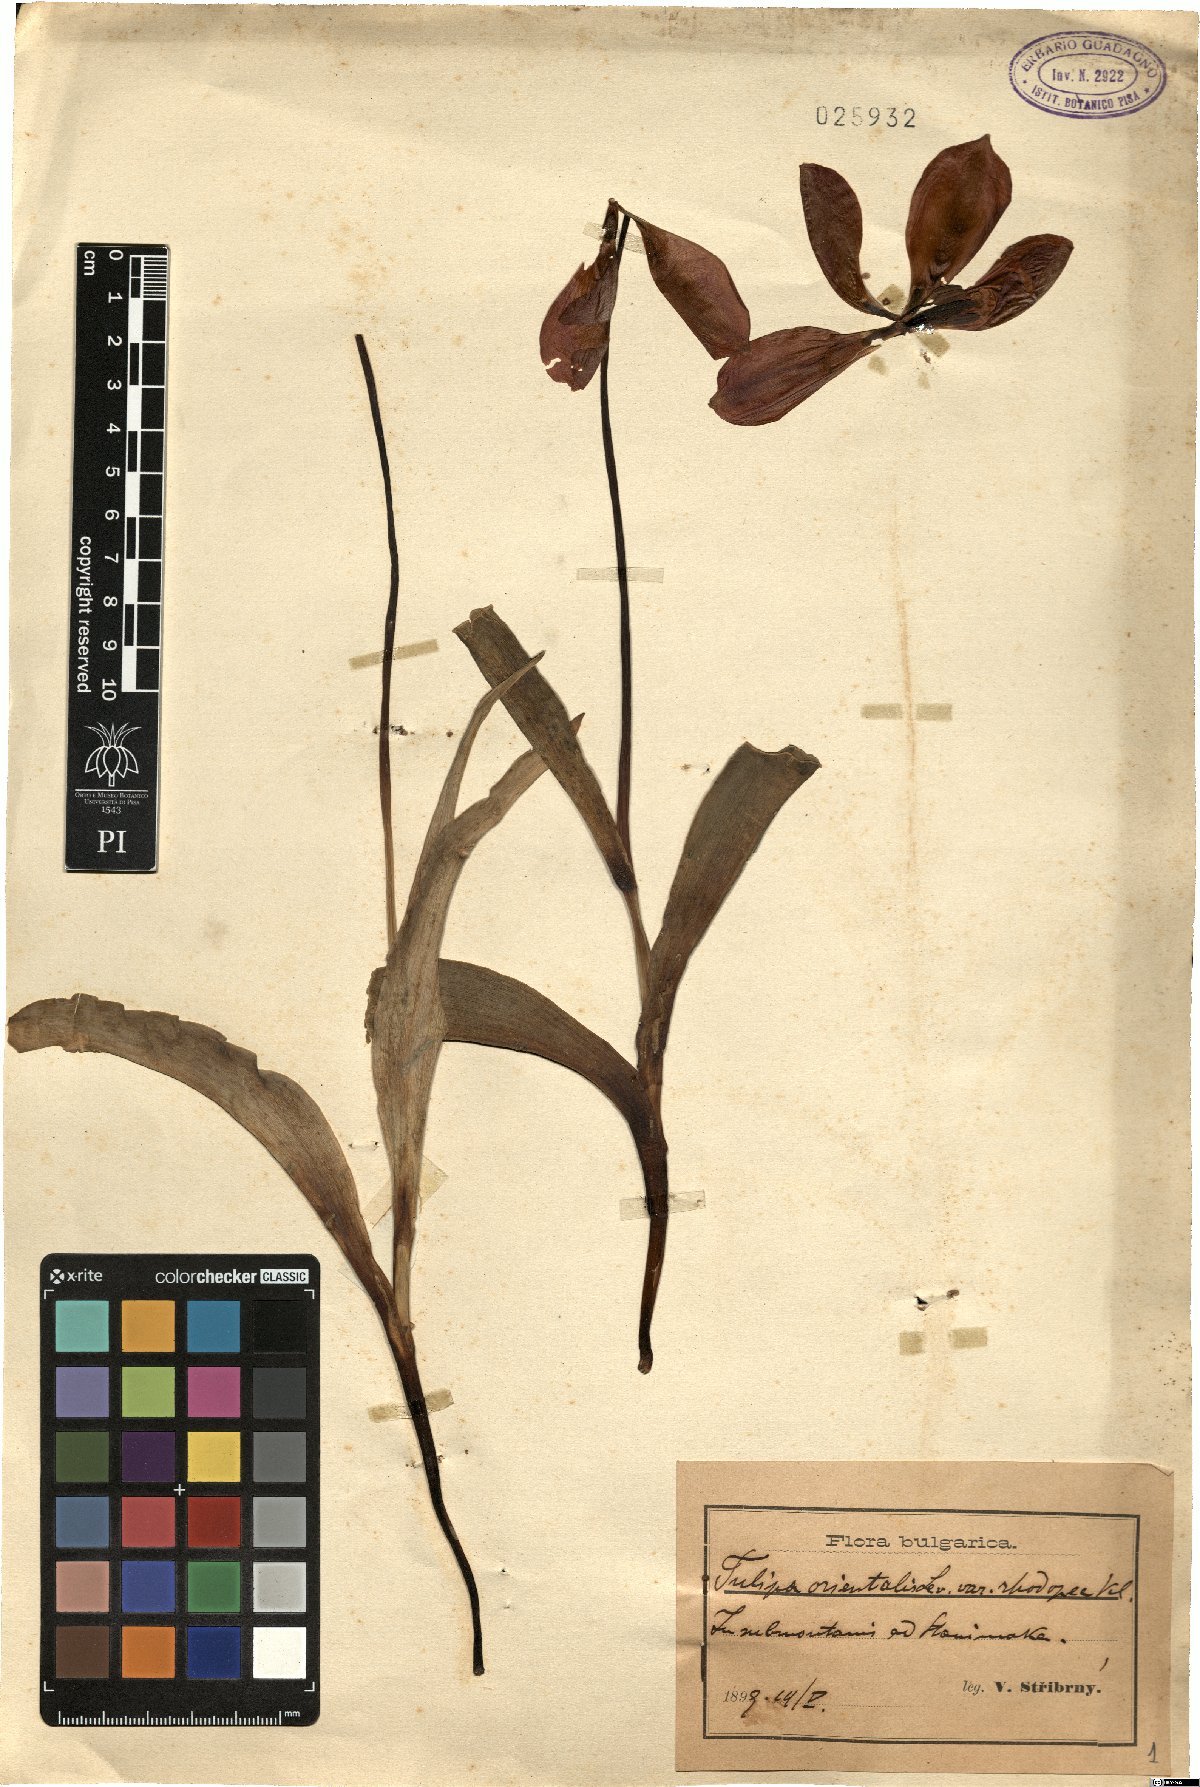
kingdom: Plantae
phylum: Tracheophyta
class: Liliopsida
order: Liliales
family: Liliaceae
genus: Tulipa
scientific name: Tulipa hungarica
